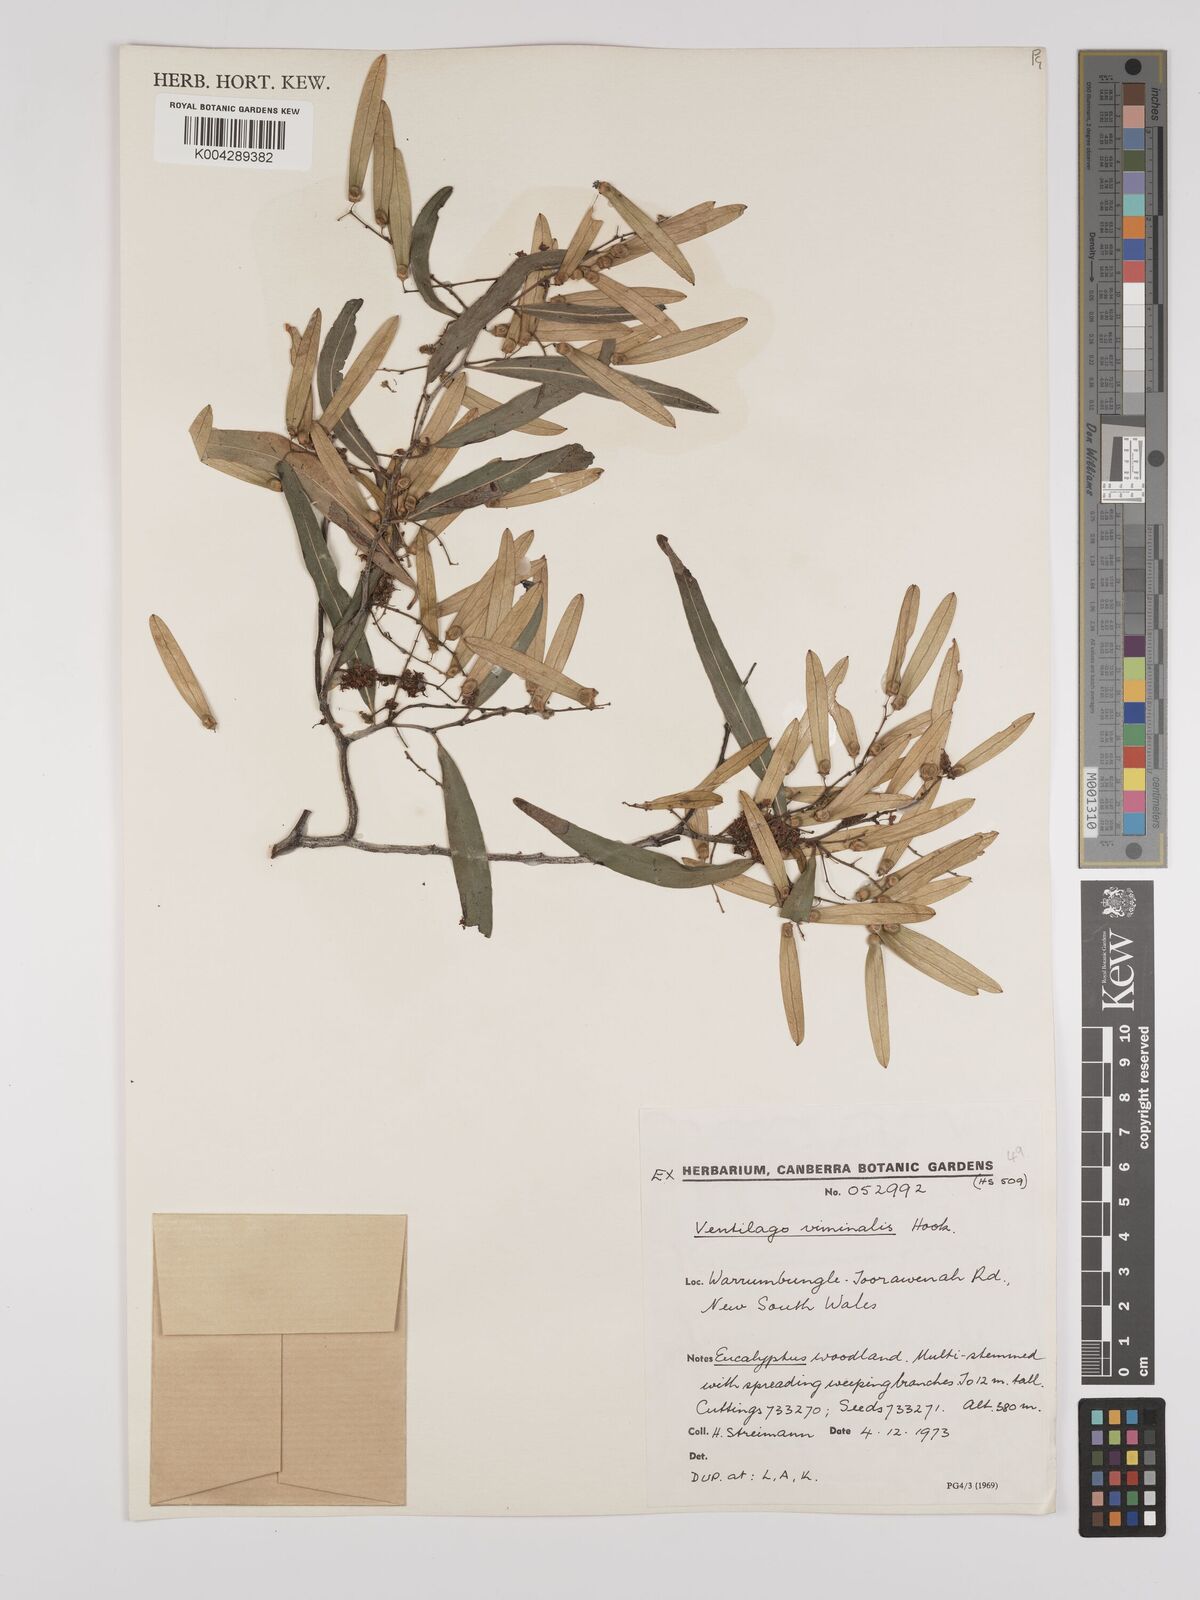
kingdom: Plantae
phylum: Tracheophyta
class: Magnoliopsida
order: Rosales
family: Rhamnaceae
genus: Ventilago
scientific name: Ventilago viminalis
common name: Medicine-bark
